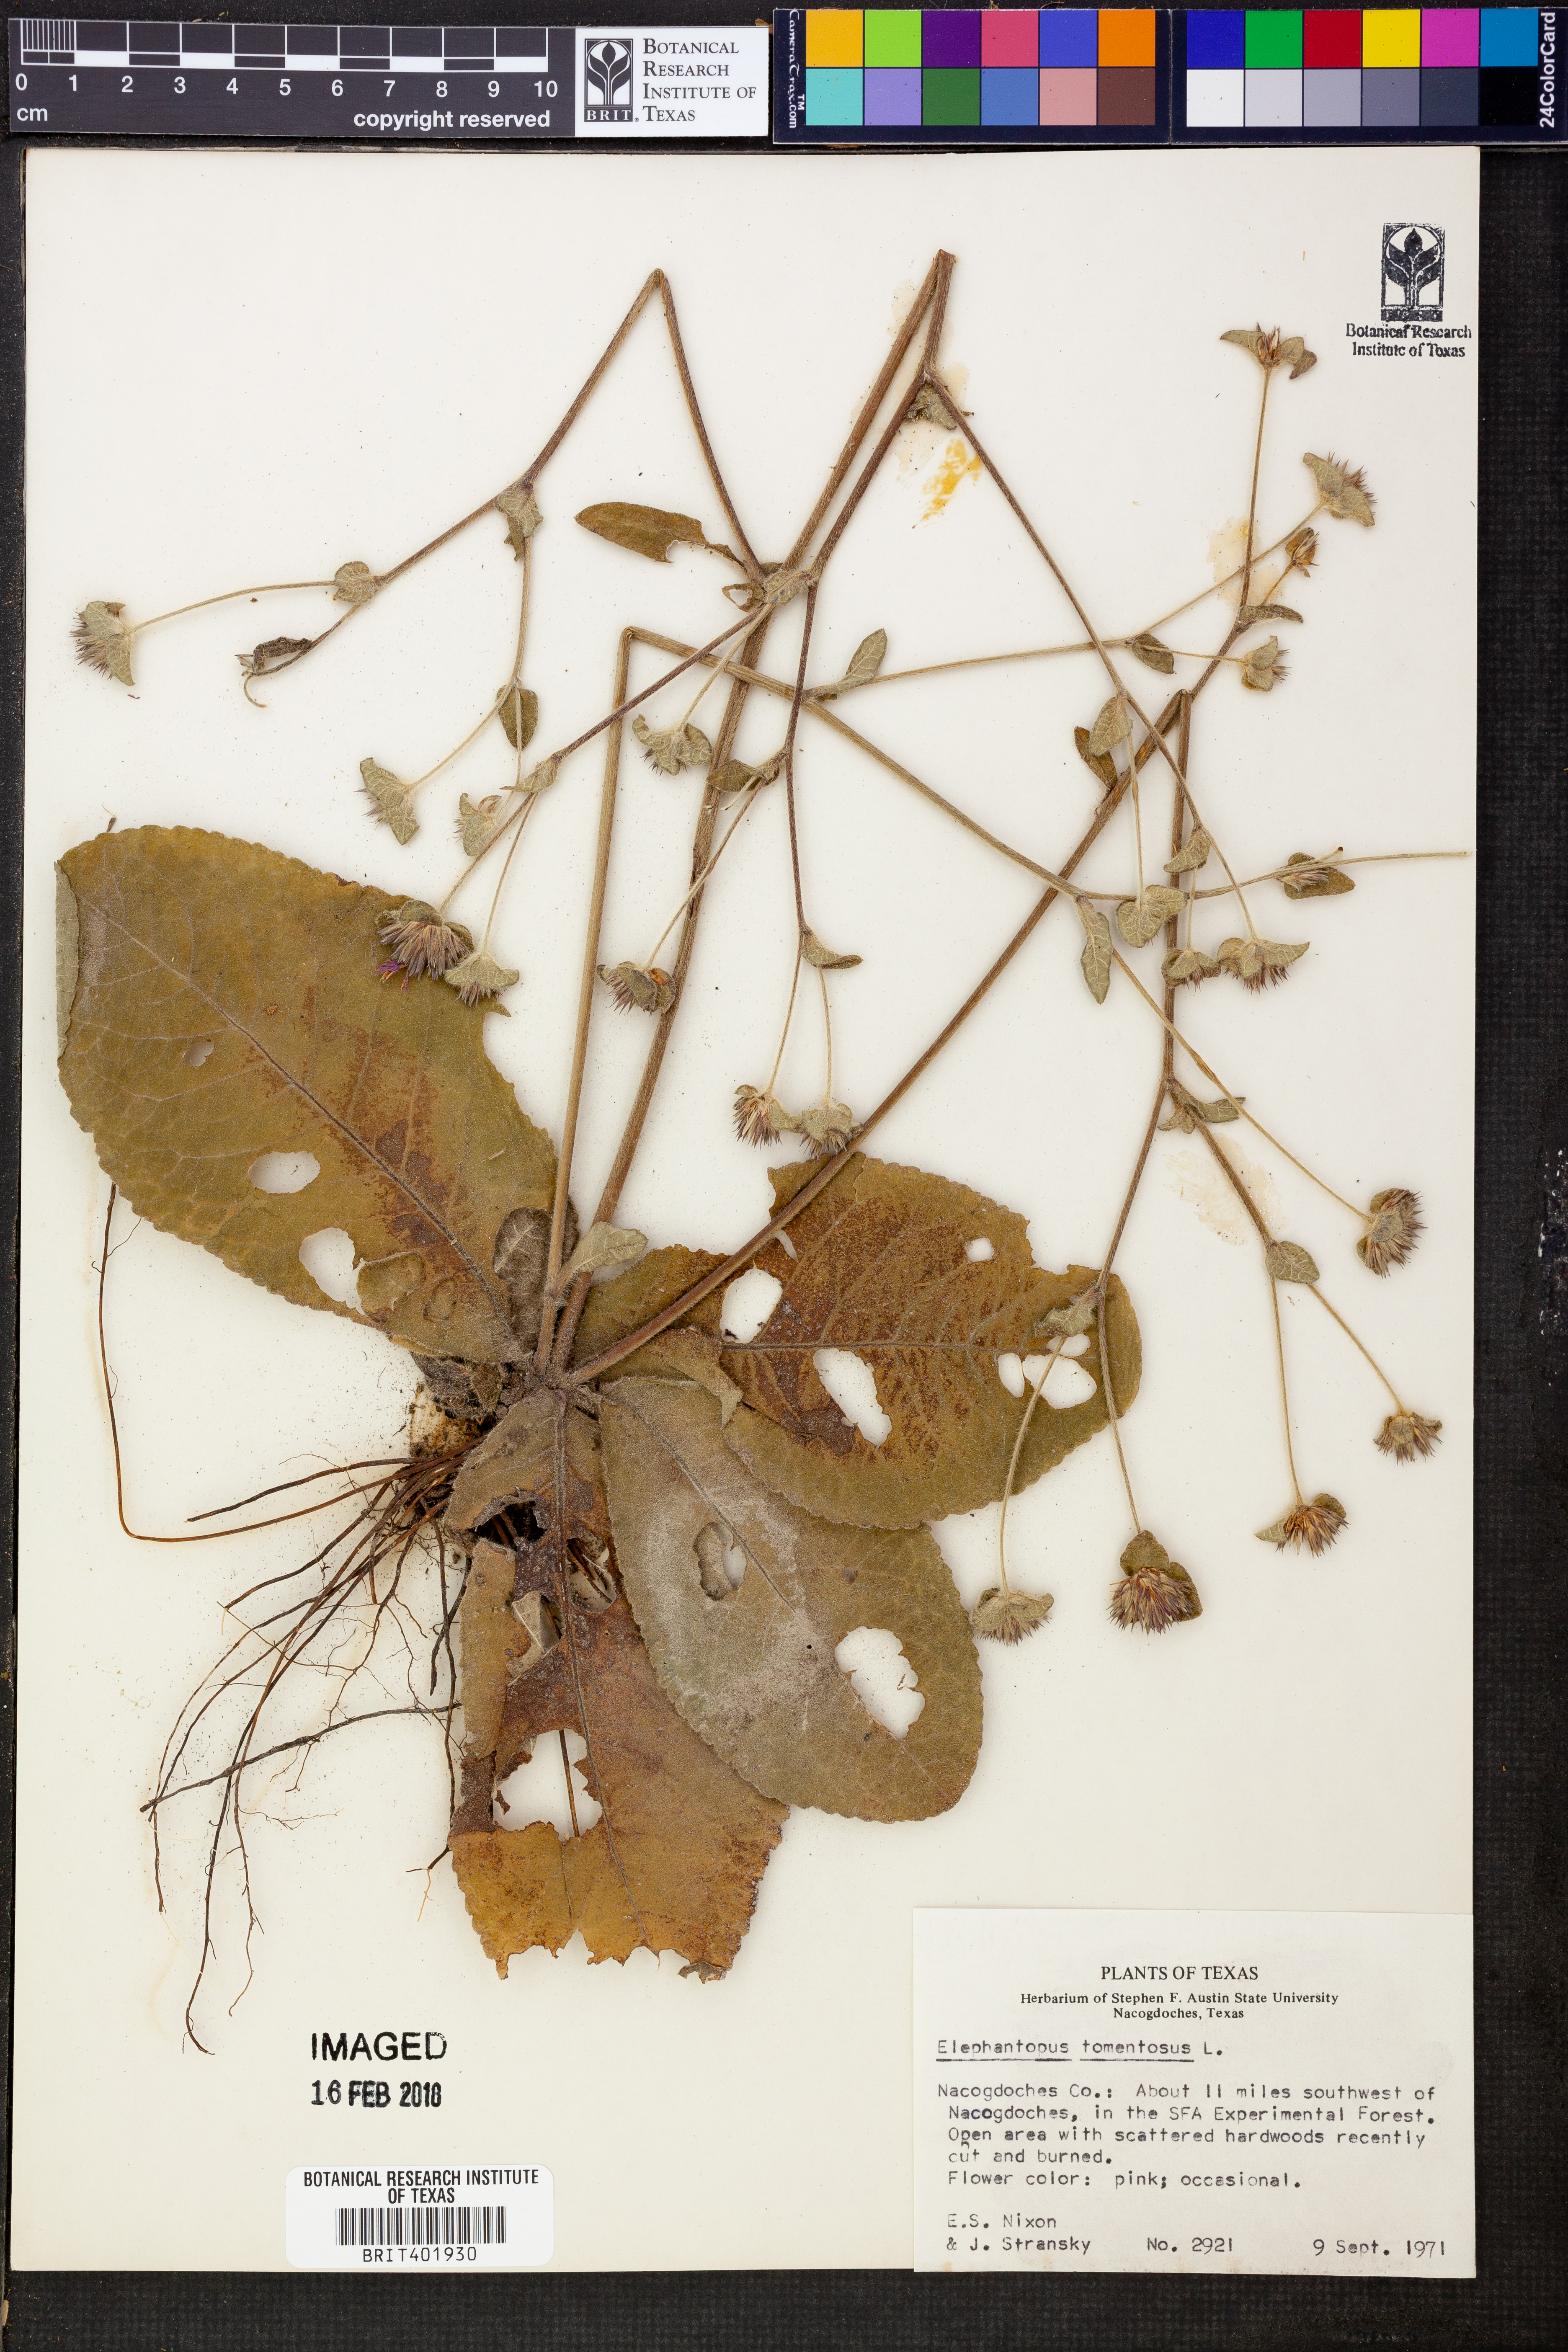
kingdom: Plantae
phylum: Tracheophyta
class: Magnoliopsida
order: Asterales
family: Asteraceae
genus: Elephantopus
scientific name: Elephantopus tomentosus
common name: Tobacco-weed
